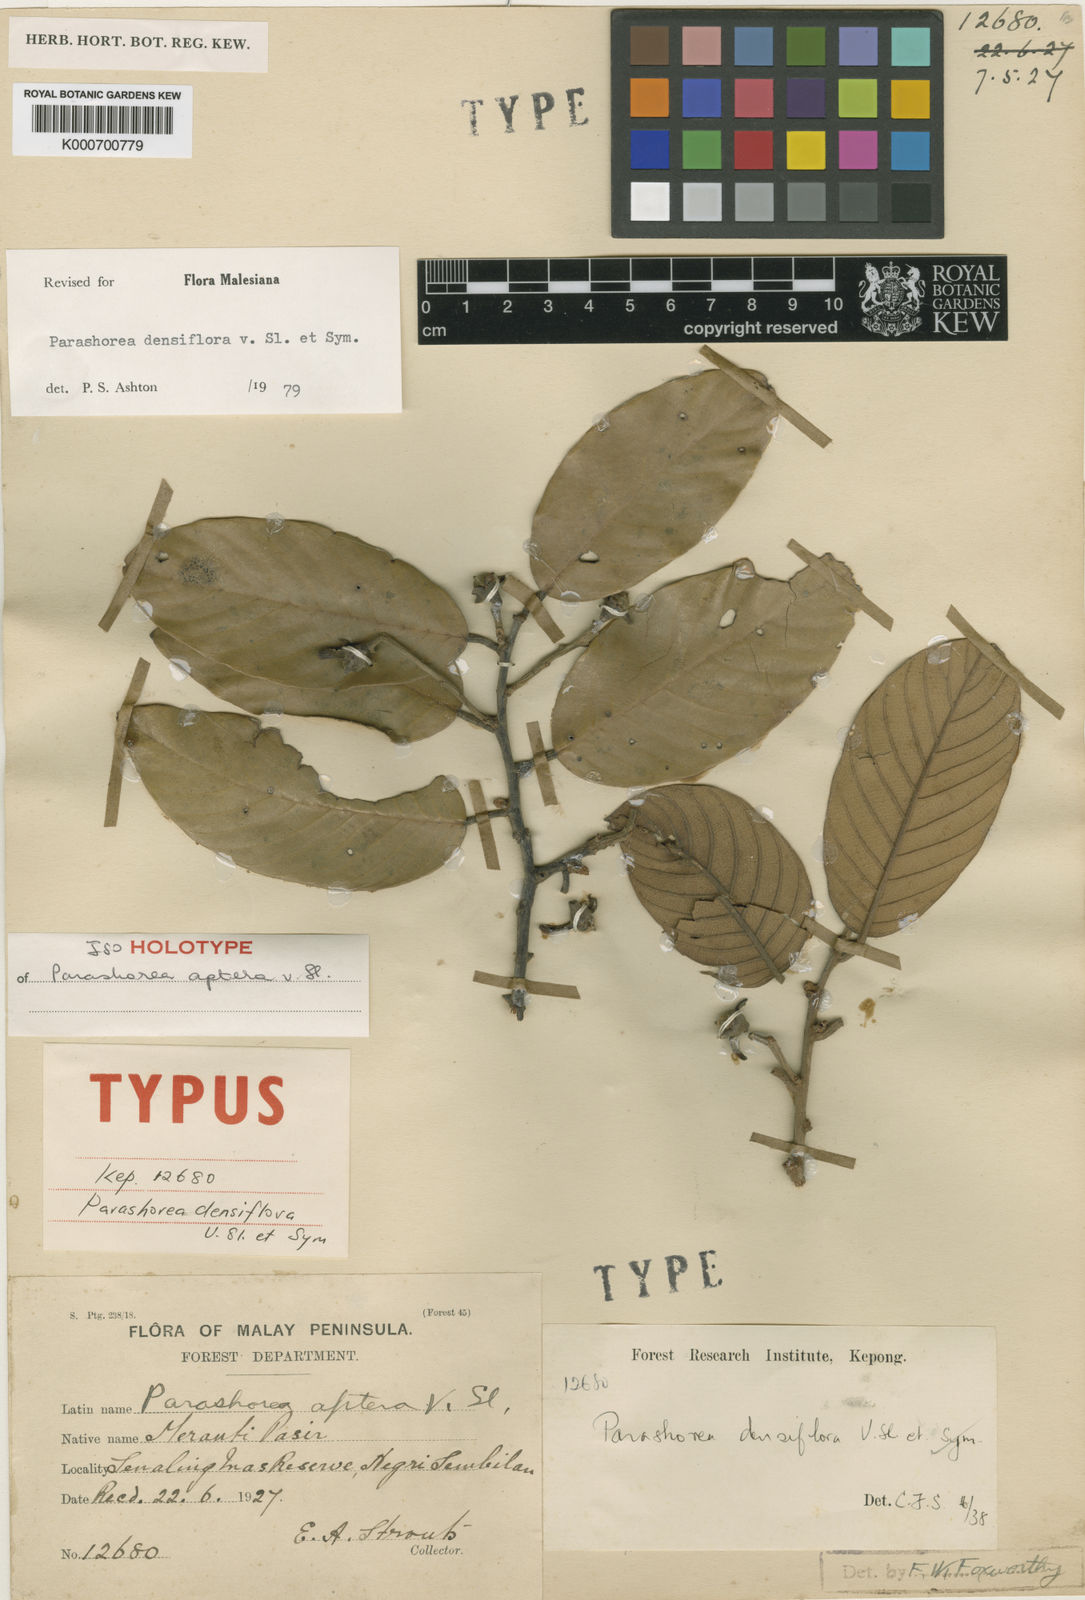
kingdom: Plantae
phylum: Tracheophyta
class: Magnoliopsida
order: Malvales
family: Dipterocarpaceae
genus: Parashorea
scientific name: Parashorea densiflora
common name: White seraya
